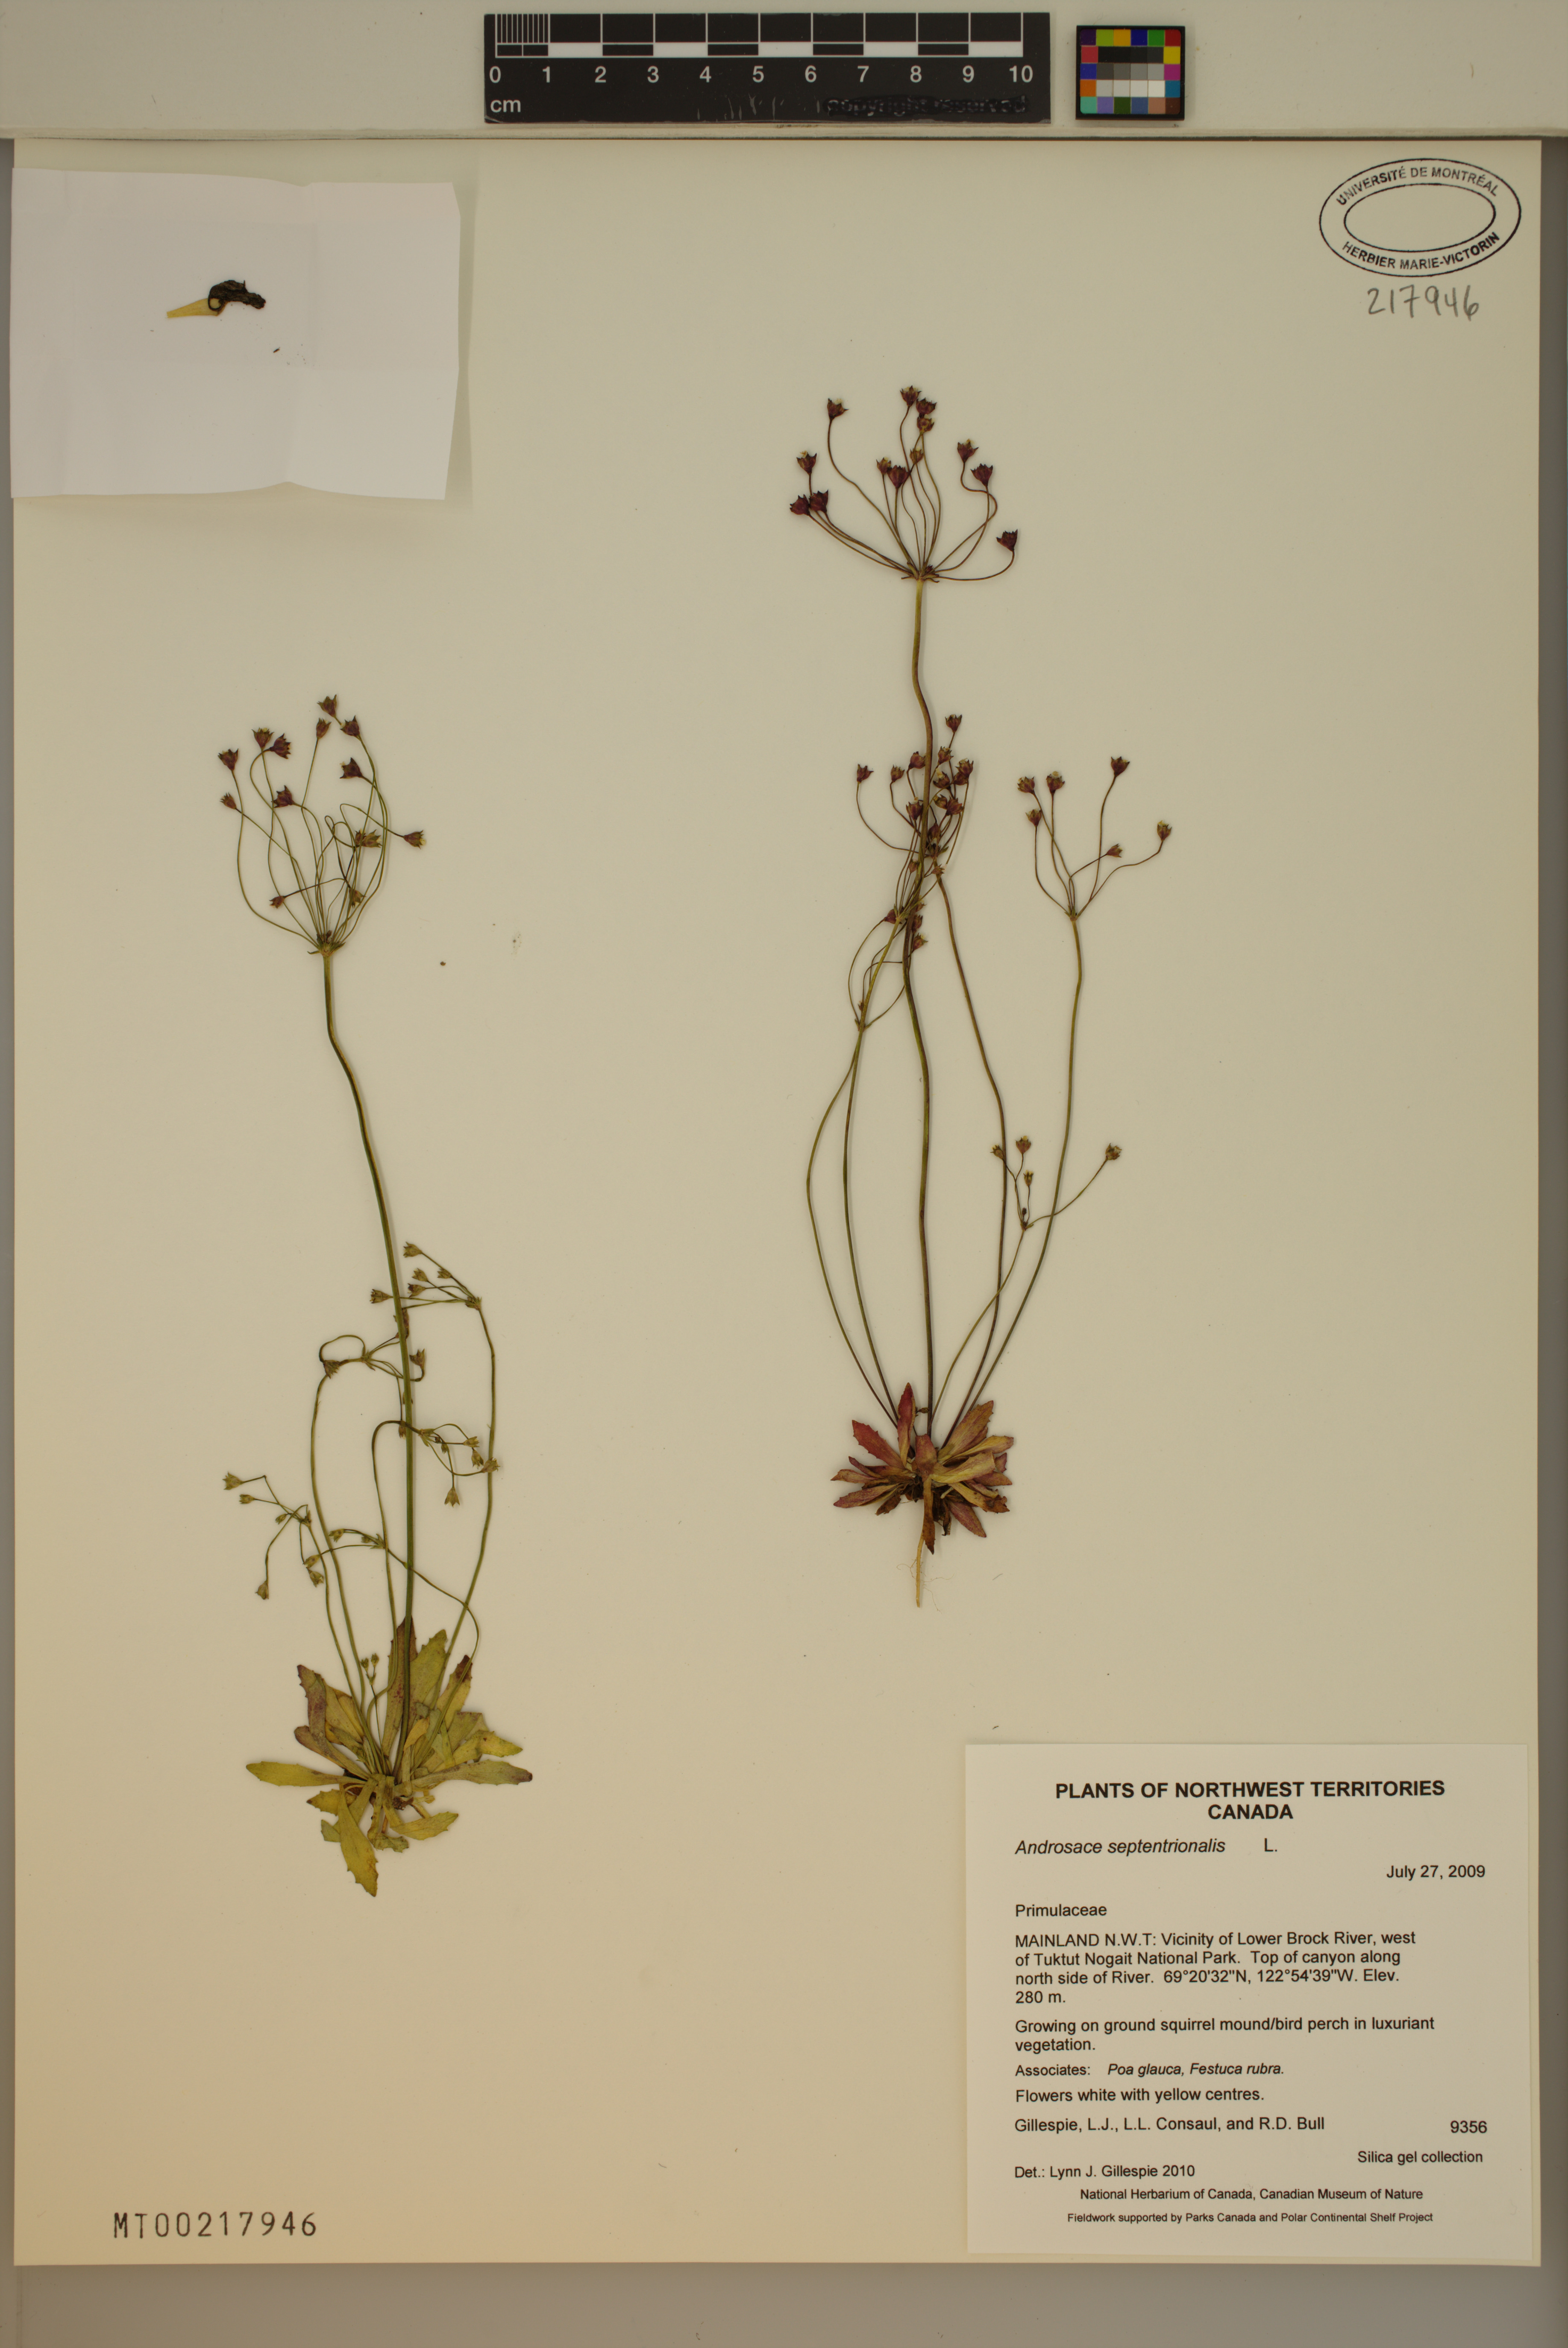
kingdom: Plantae
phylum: Tracheophyta
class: Magnoliopsida
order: Ericales
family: Primulaceae
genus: Androsace
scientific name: Androsace septentrionalis
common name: Hairy northern fairy-candelabra
